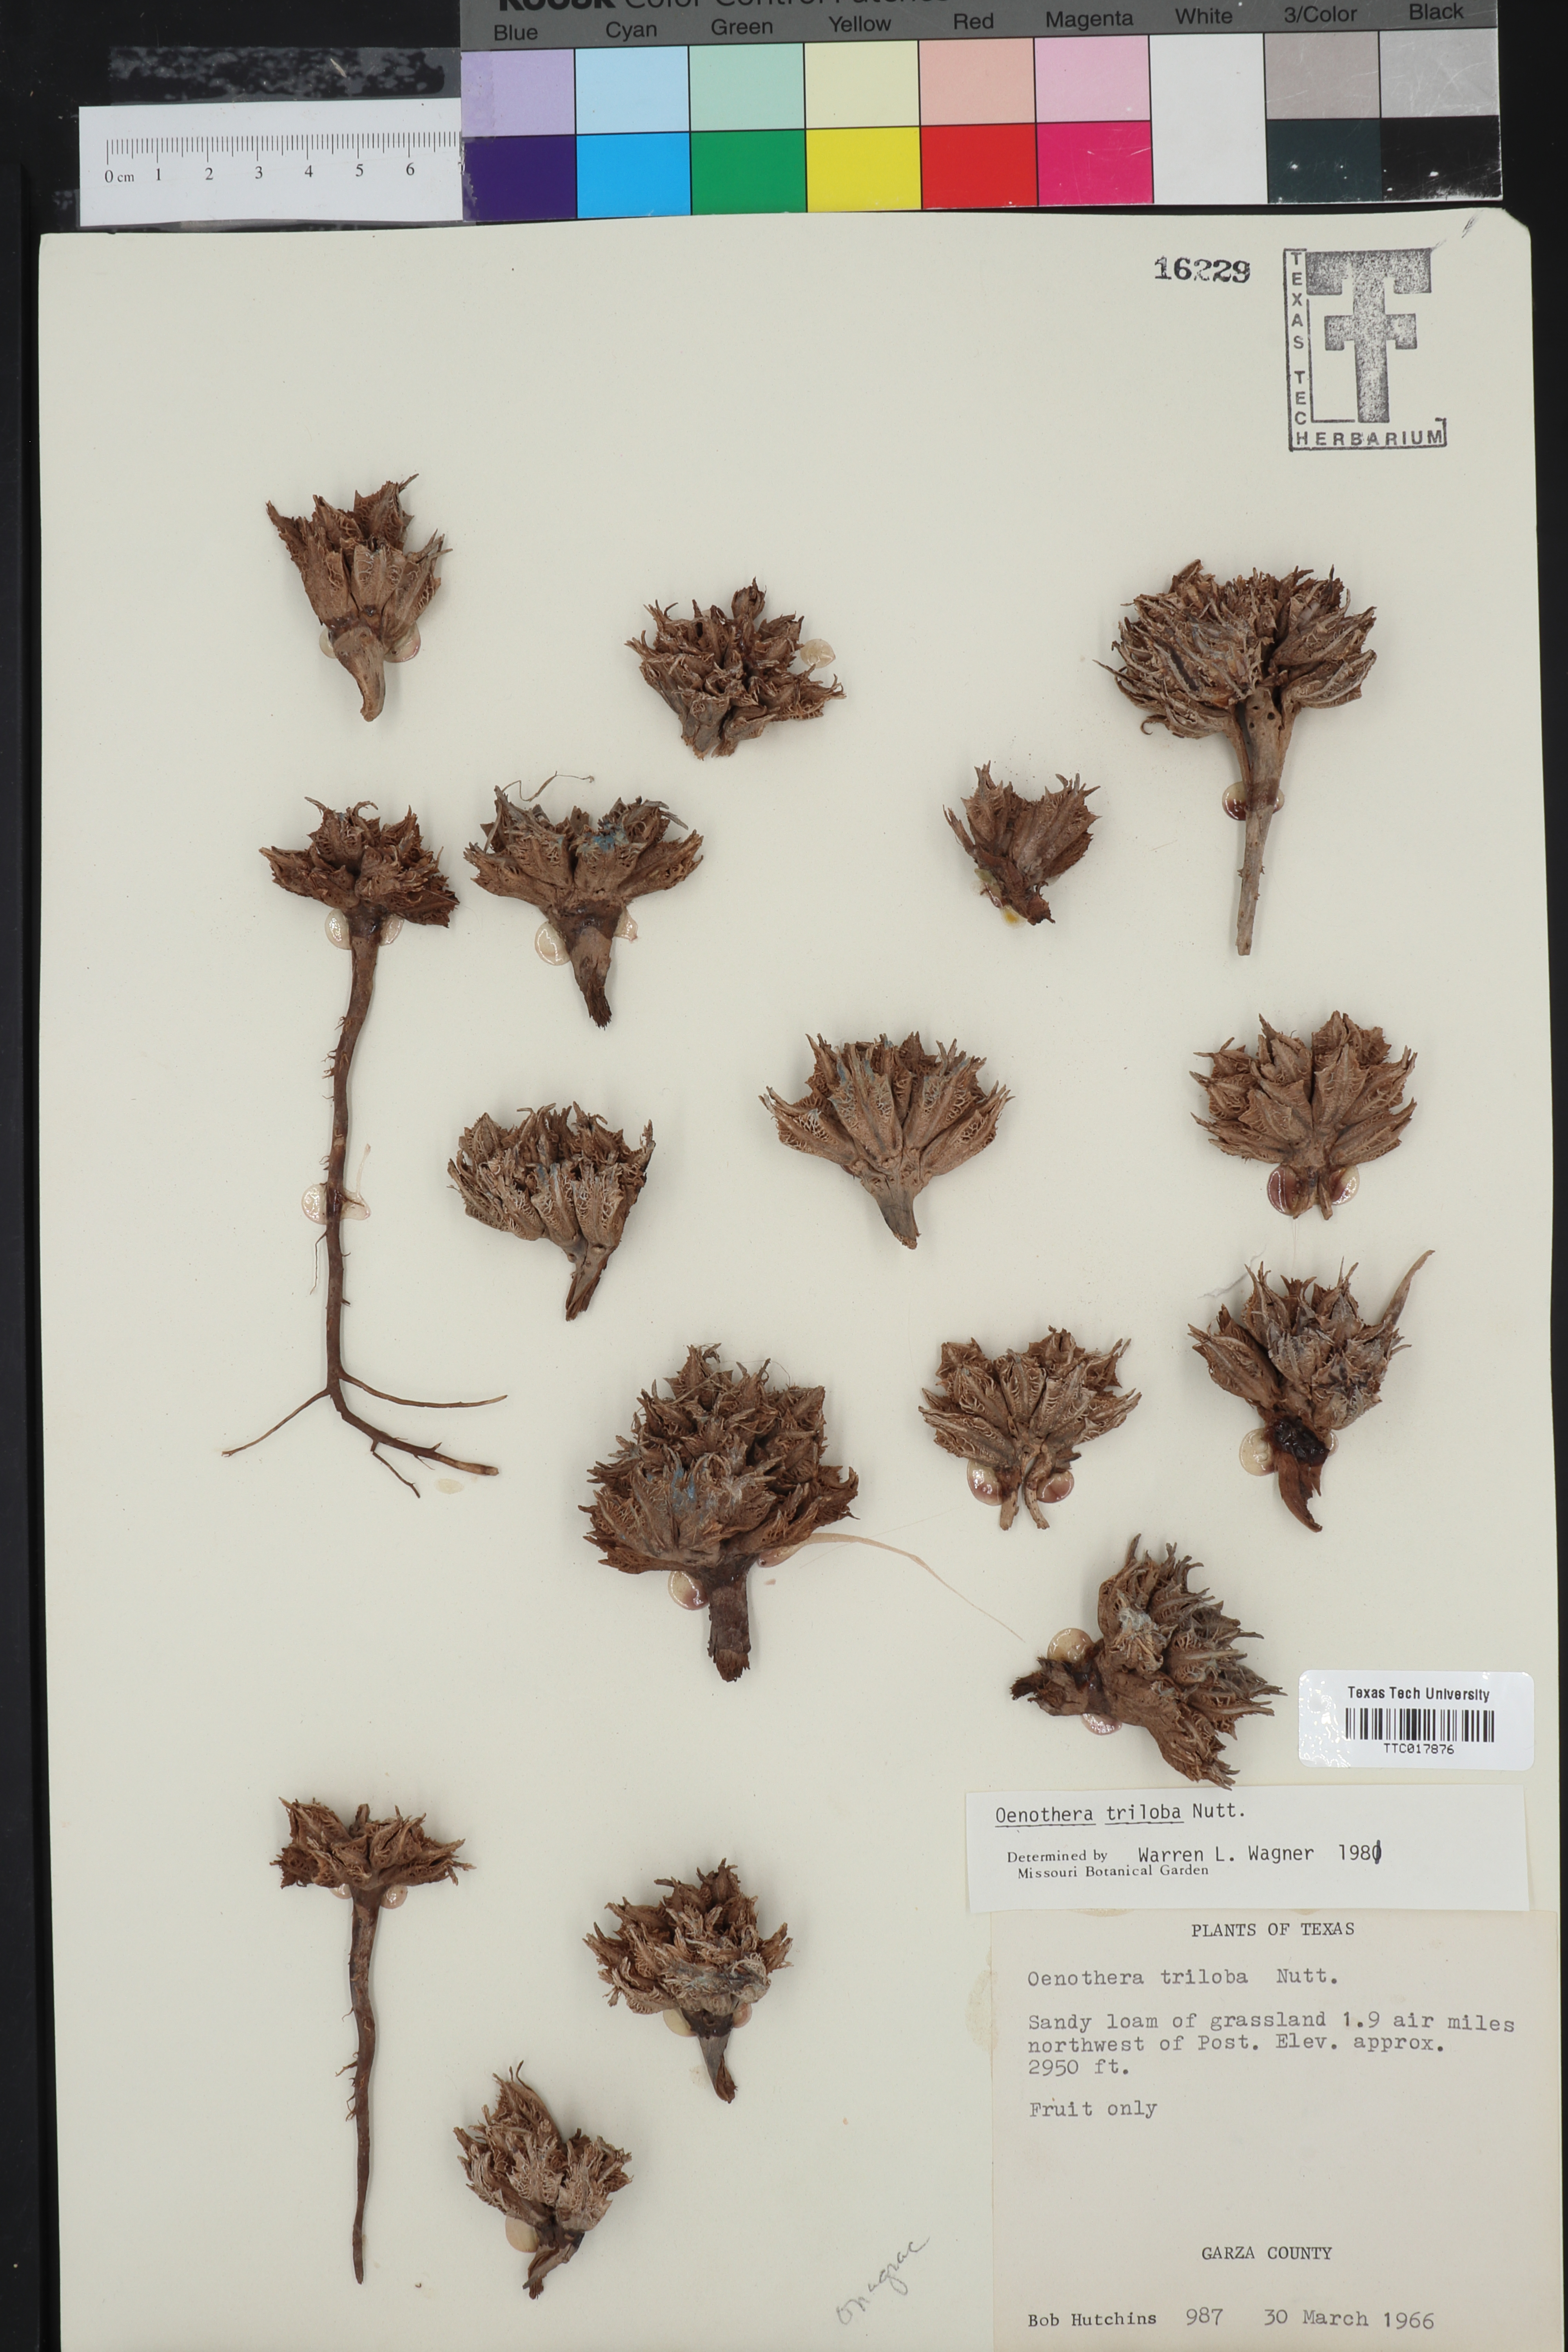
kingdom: Plantae
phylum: Tracheophyta
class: Magnoliopsida
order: Myrtales
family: Onagraceae
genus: Oenothera
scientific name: Oenothera triloba
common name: Sessile evening-primrose
